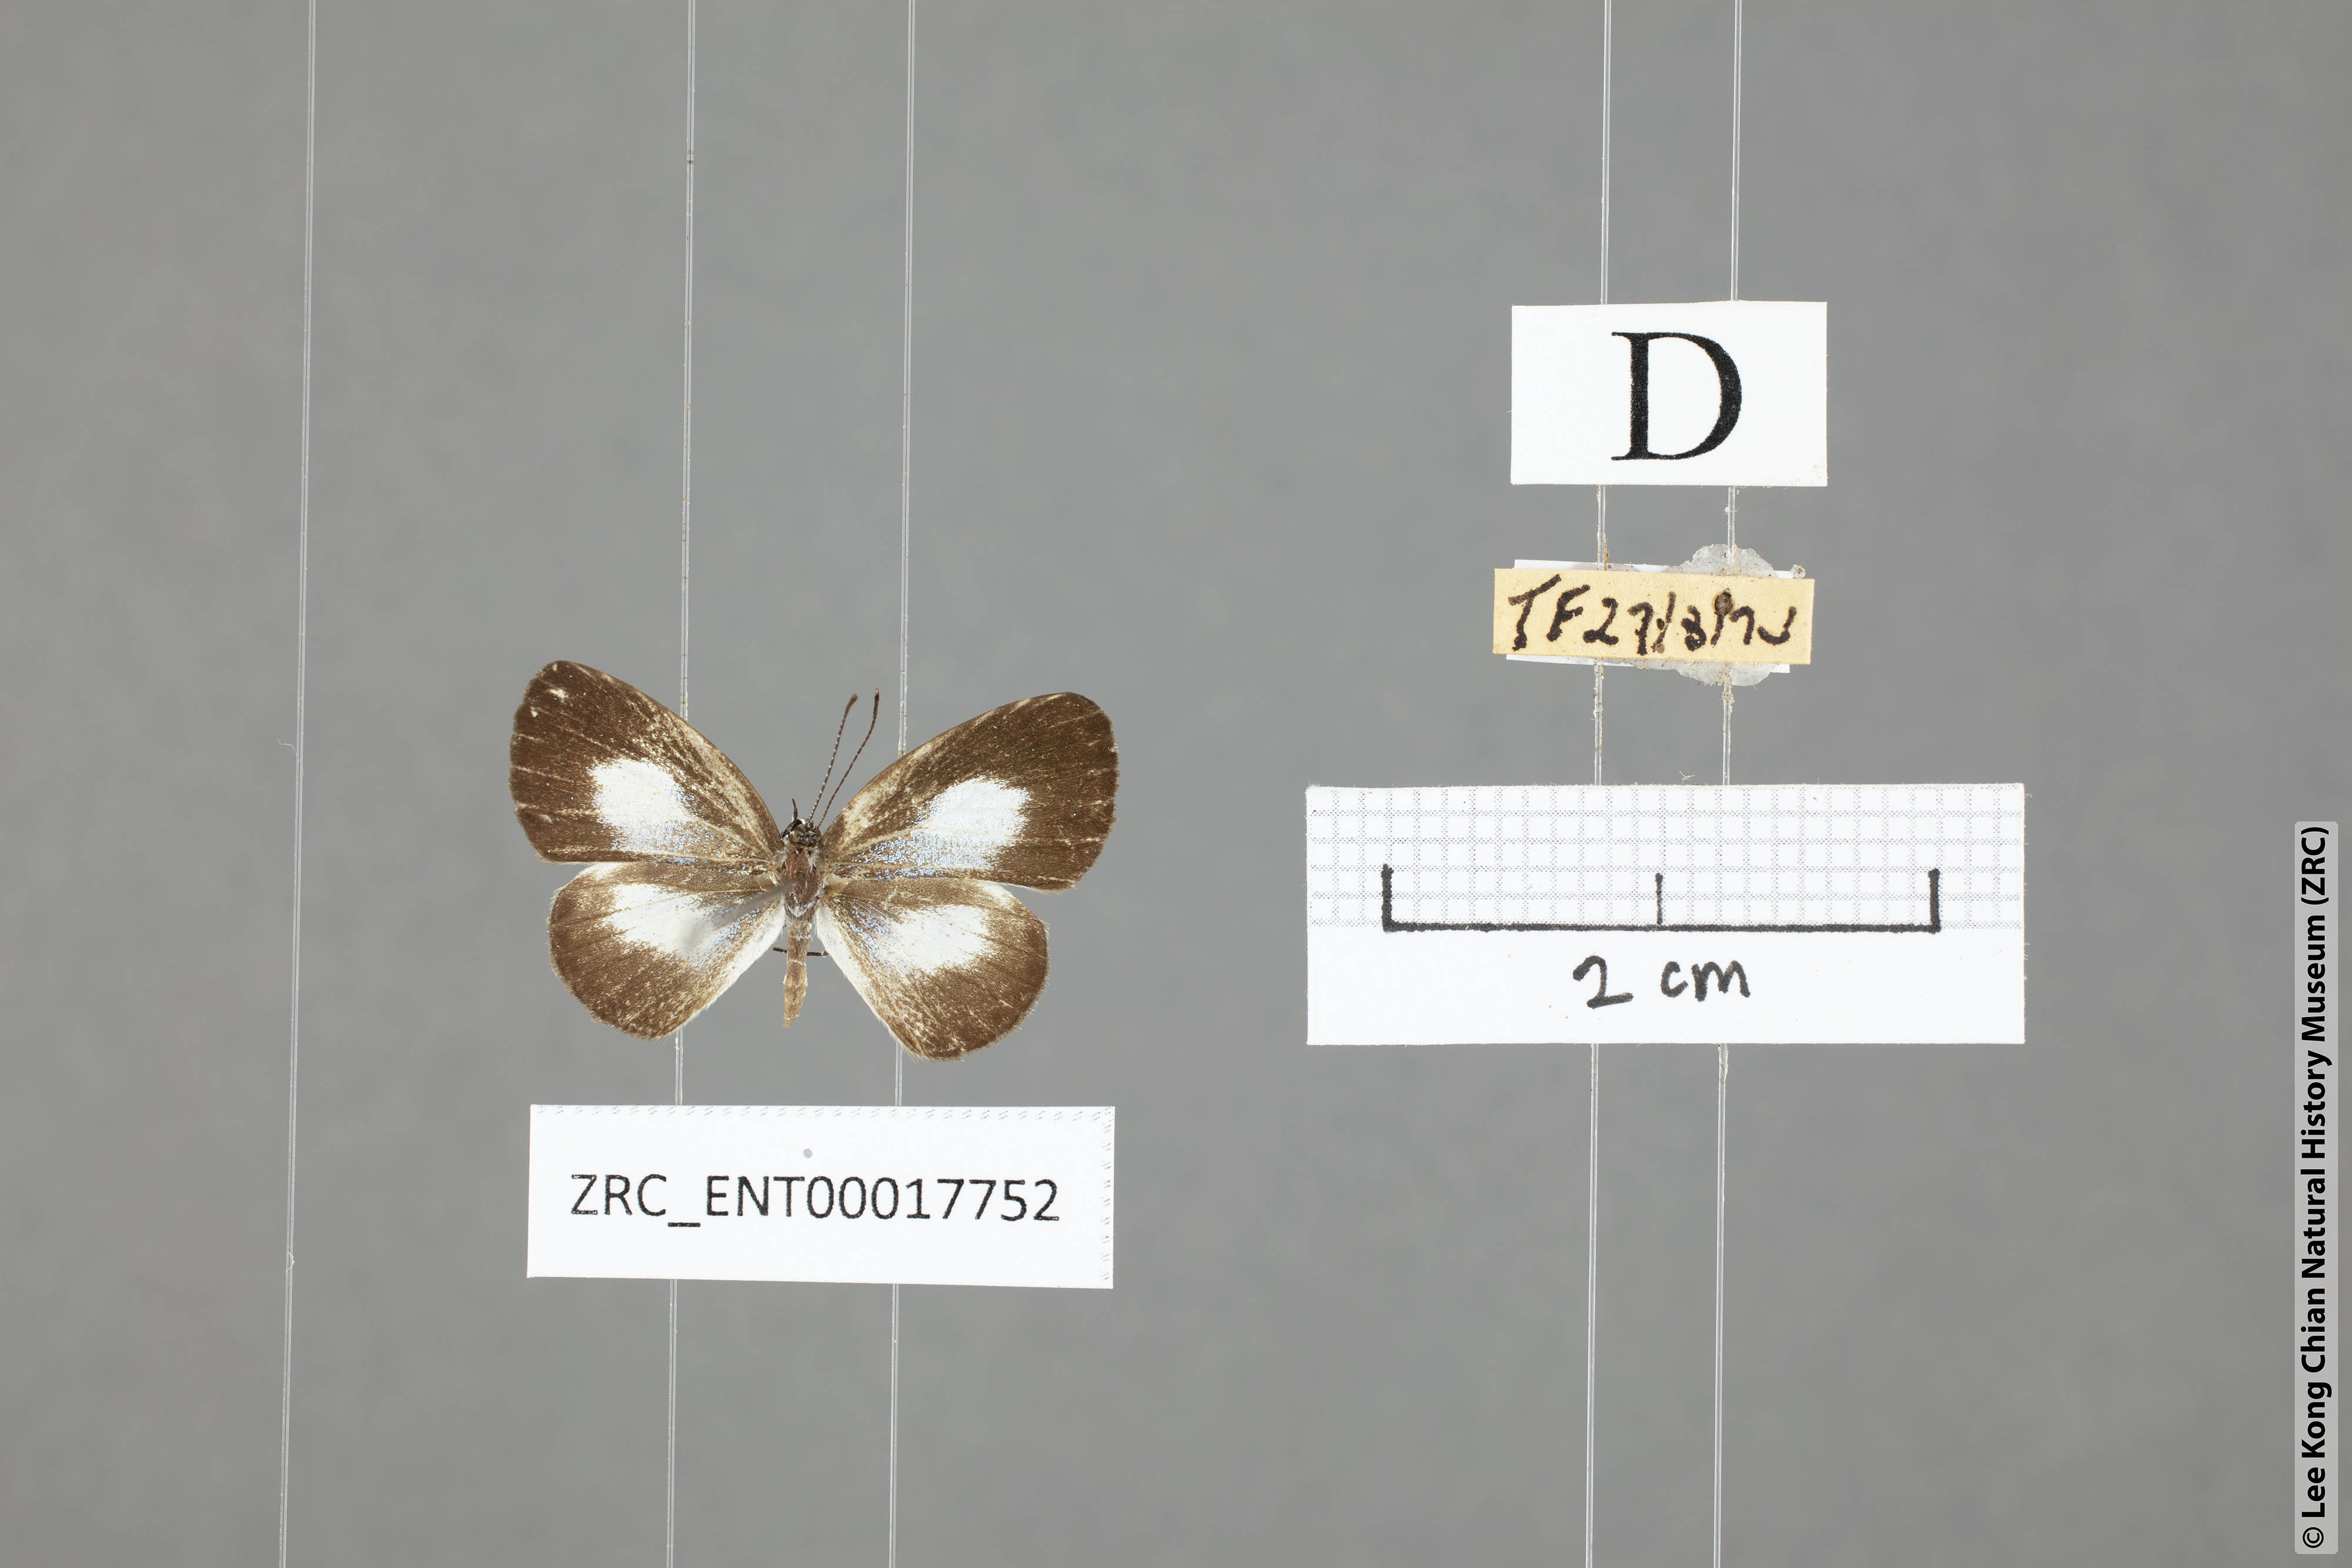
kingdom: Animalia
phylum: Arthropoda
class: Insecta
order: Lepidoptera
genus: Plautella
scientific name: Plautella
